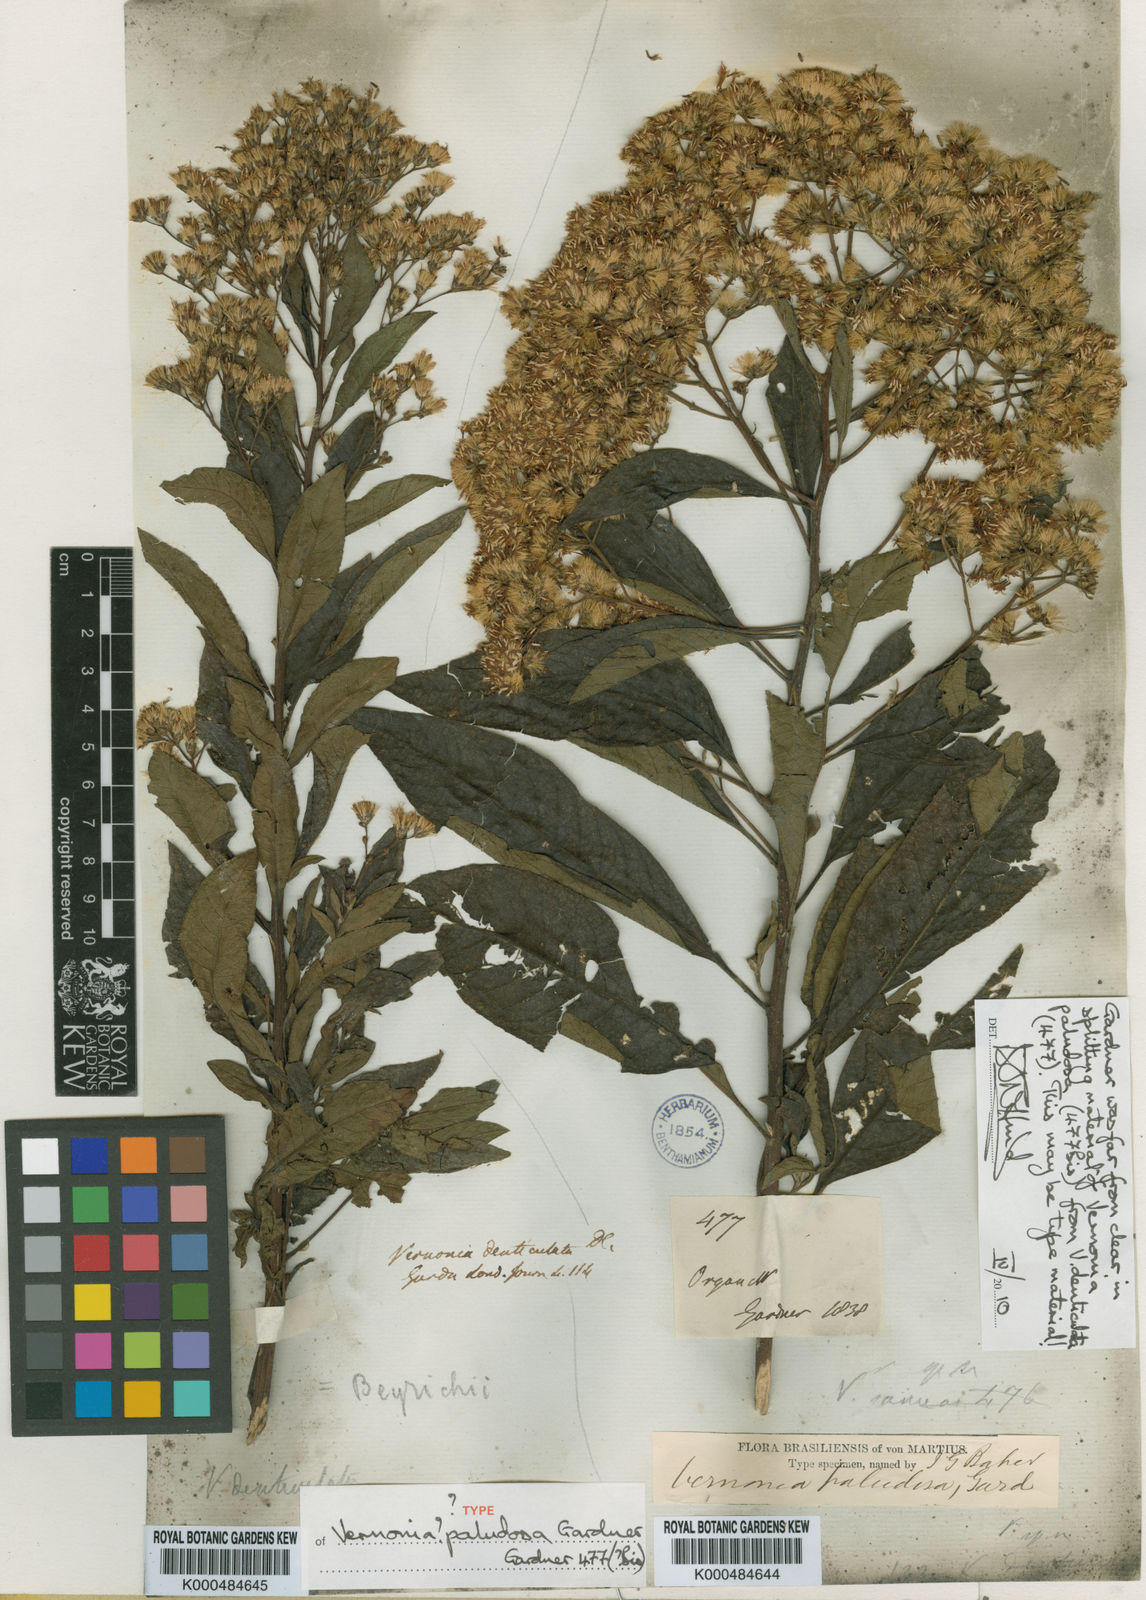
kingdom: Plantae
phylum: Tracheophyta
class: Magnoliopsida
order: Asterales
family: Asteraceae
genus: Vernonanthura
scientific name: Vernonanthura paludosa
